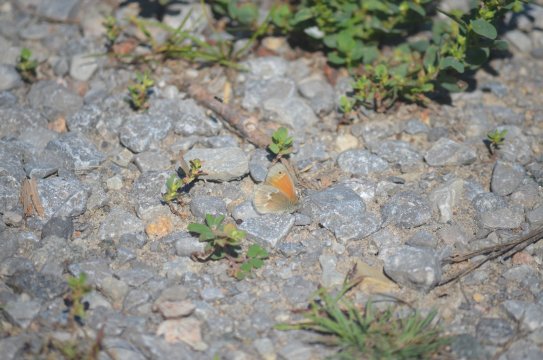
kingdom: Animalia
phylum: Arthropoda
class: Insecta
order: Lepidoptera
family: Nymphalidae
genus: Coenonympha
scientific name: Coenonympha tullia
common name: Large Heath
